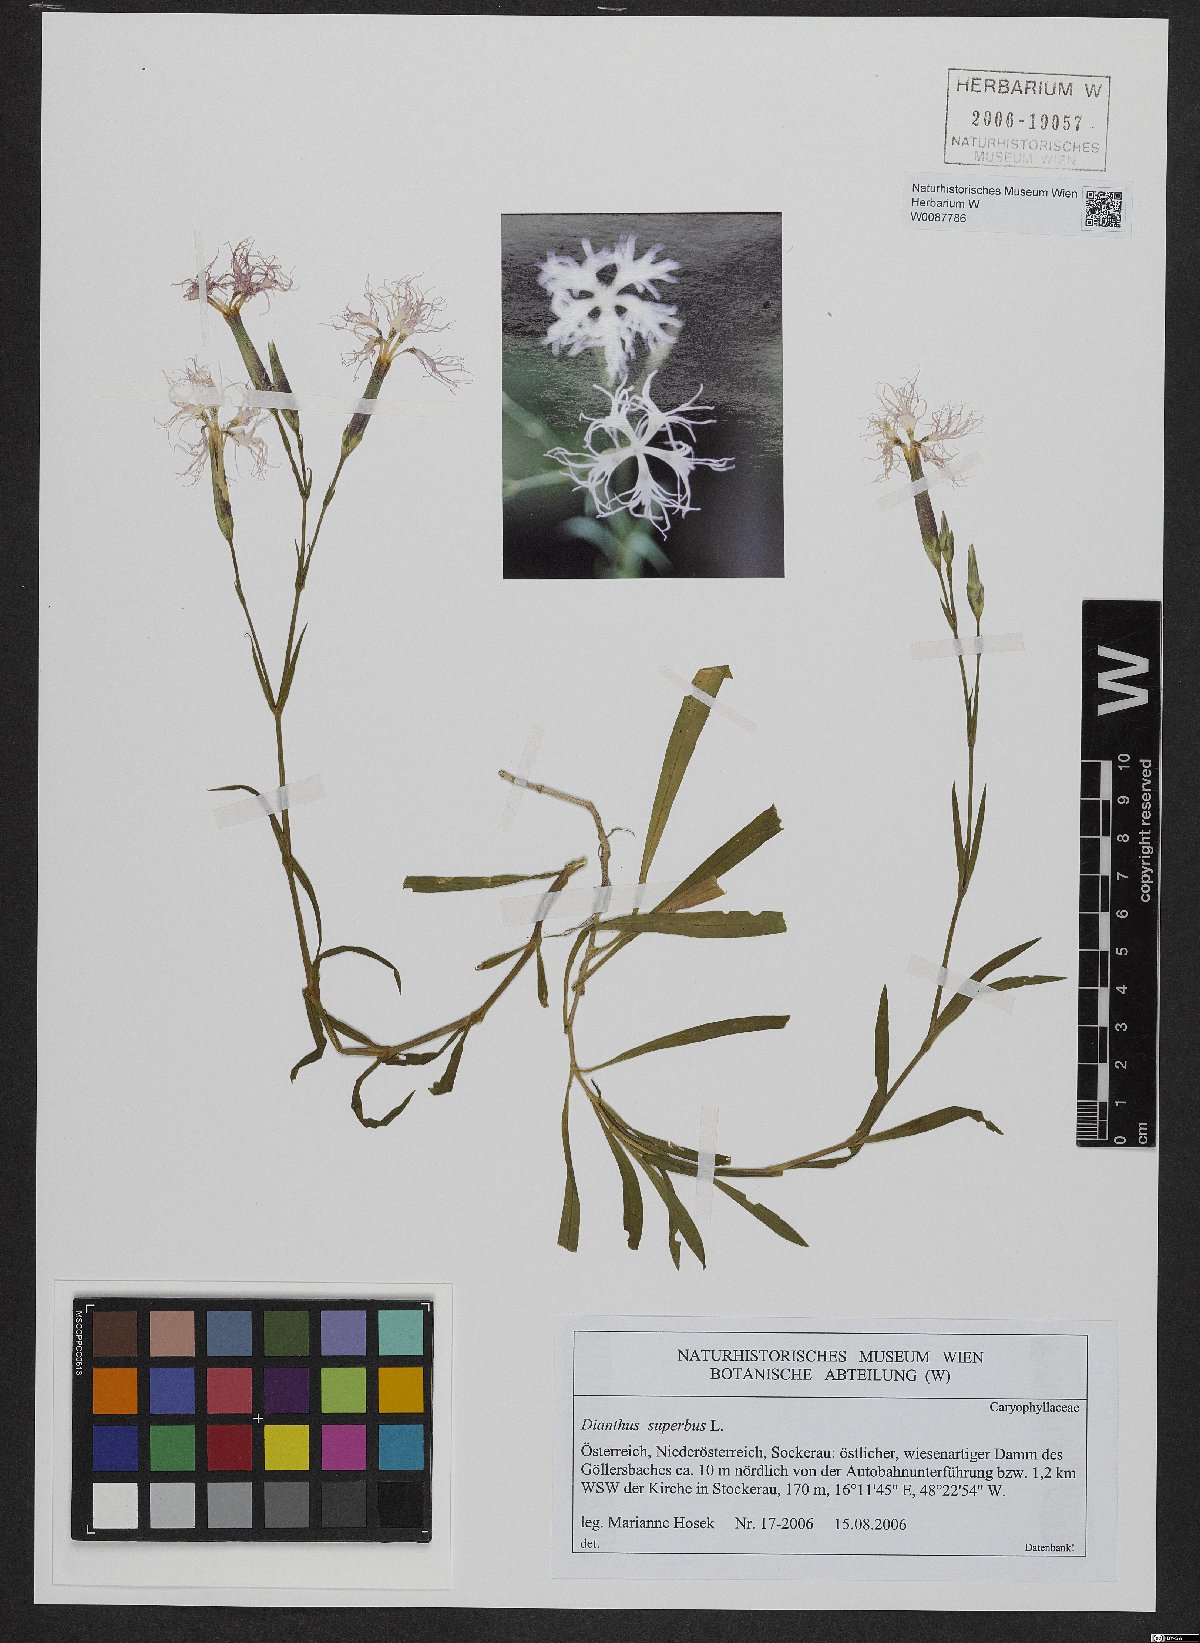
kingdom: Plantae
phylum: Tracheophyta
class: Magnoliopsida
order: Caryophyllales
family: Caryophyllaceae
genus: Dianthus
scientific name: Dianthus superbus
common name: Fringed pink
